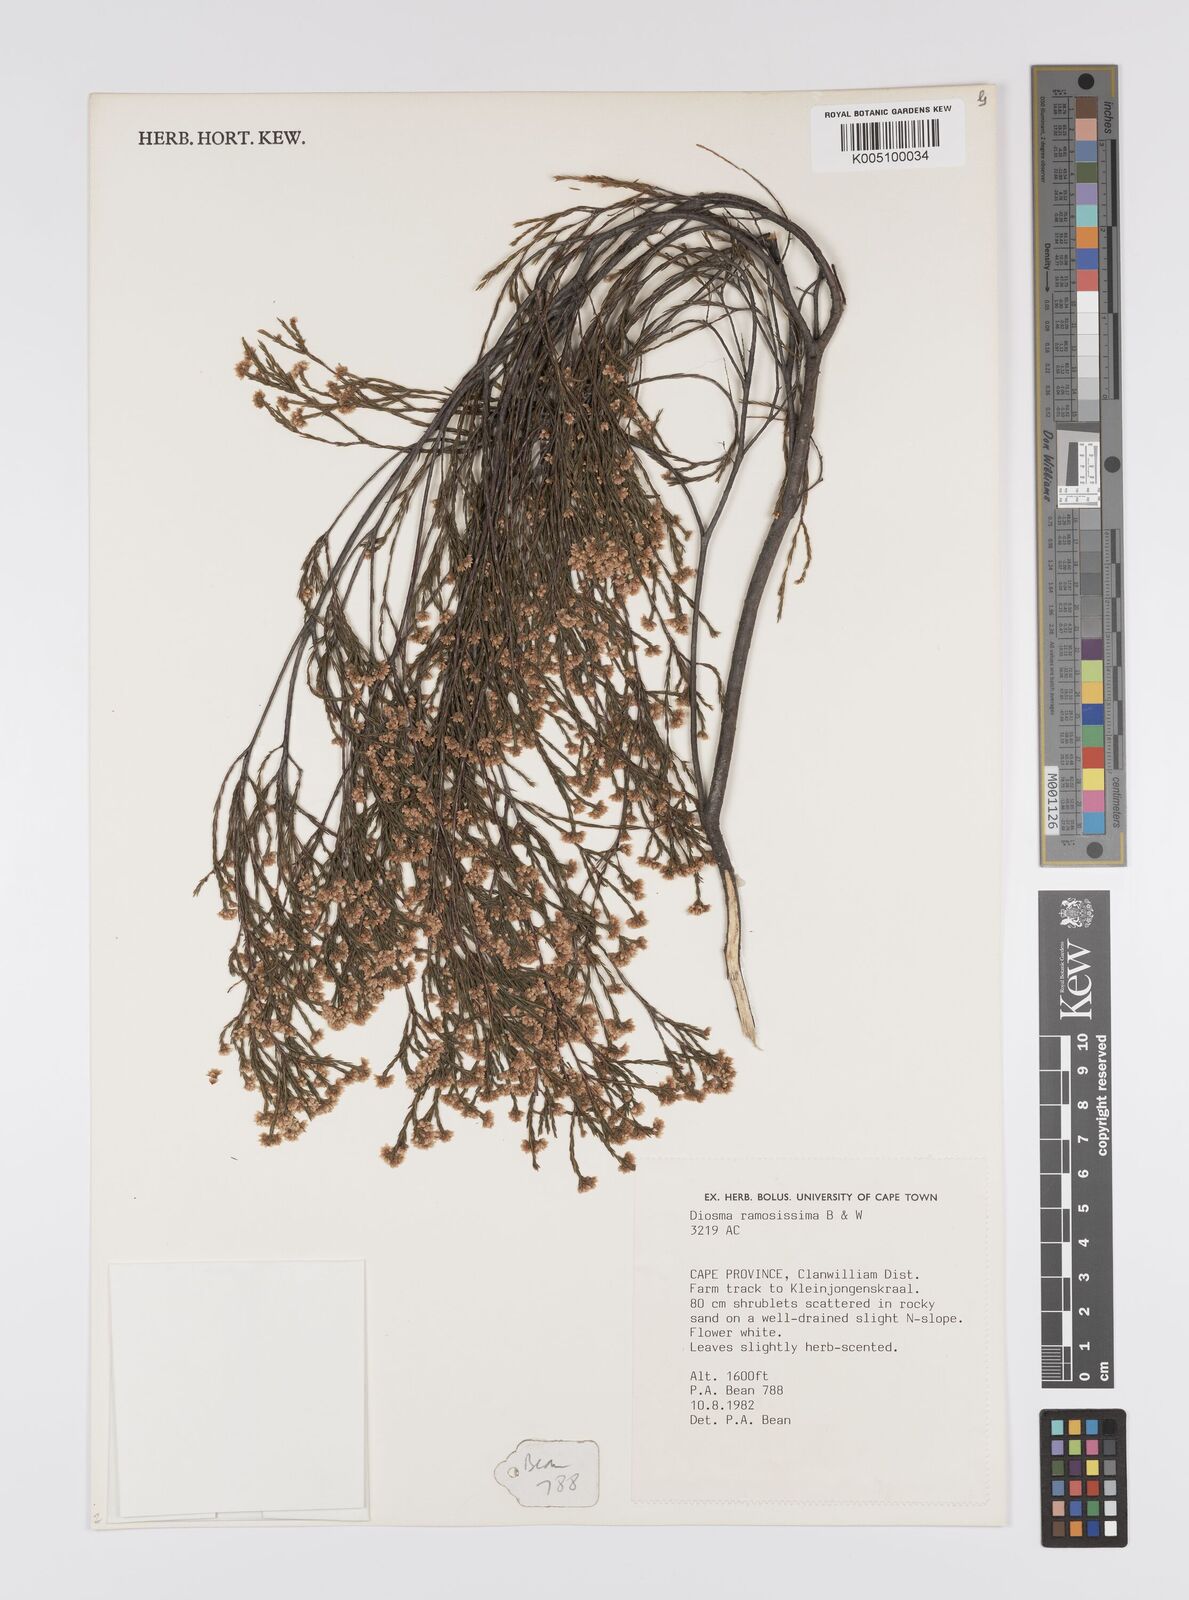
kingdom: Plantae
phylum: Tracheophyta
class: Magnoliopsida
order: Sapindales
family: Rutaceae
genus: Diosma
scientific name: Diosma ramosissima
